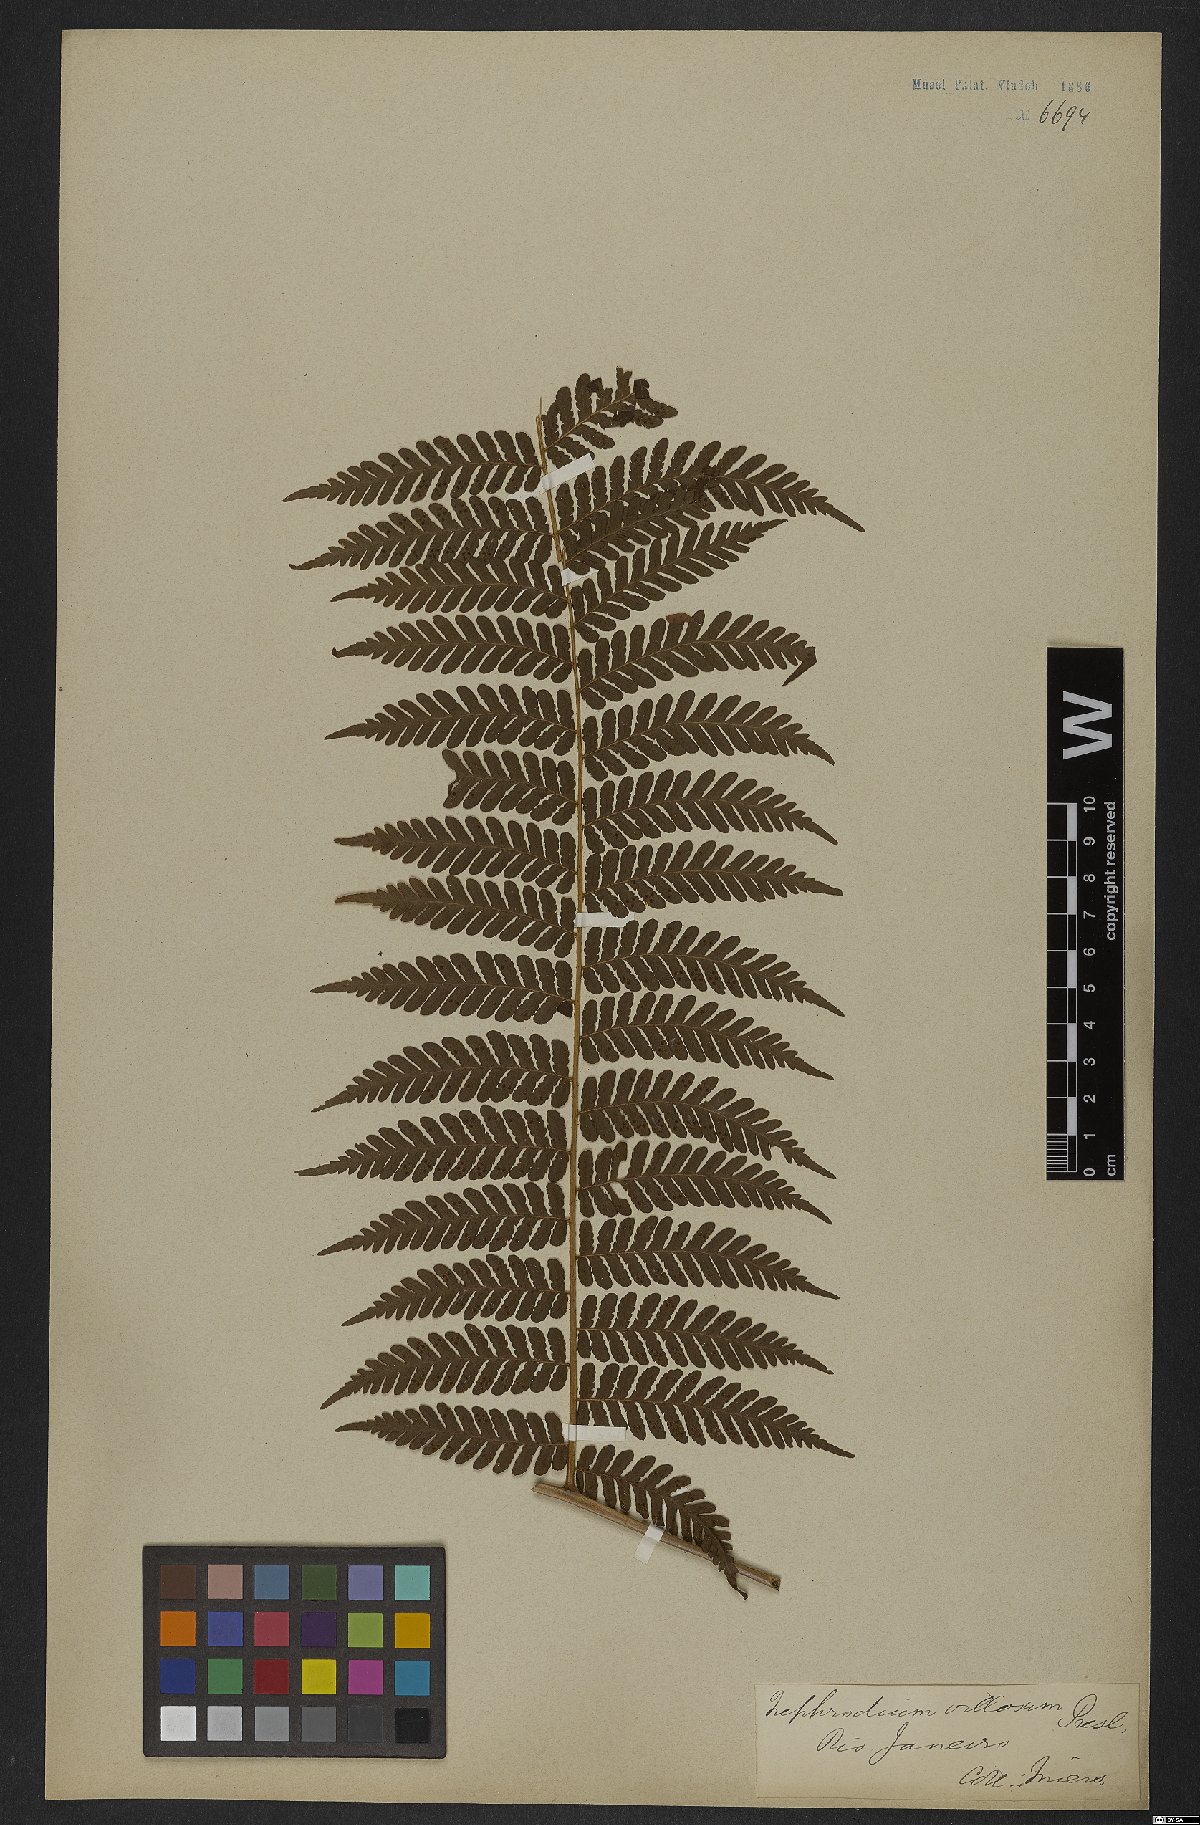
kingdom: Plantae
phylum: Tracheophyta
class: Polypodiopsida
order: Polypodiales
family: Dryopteridaceae
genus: Megalastrum
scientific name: Megalastrum villosum
